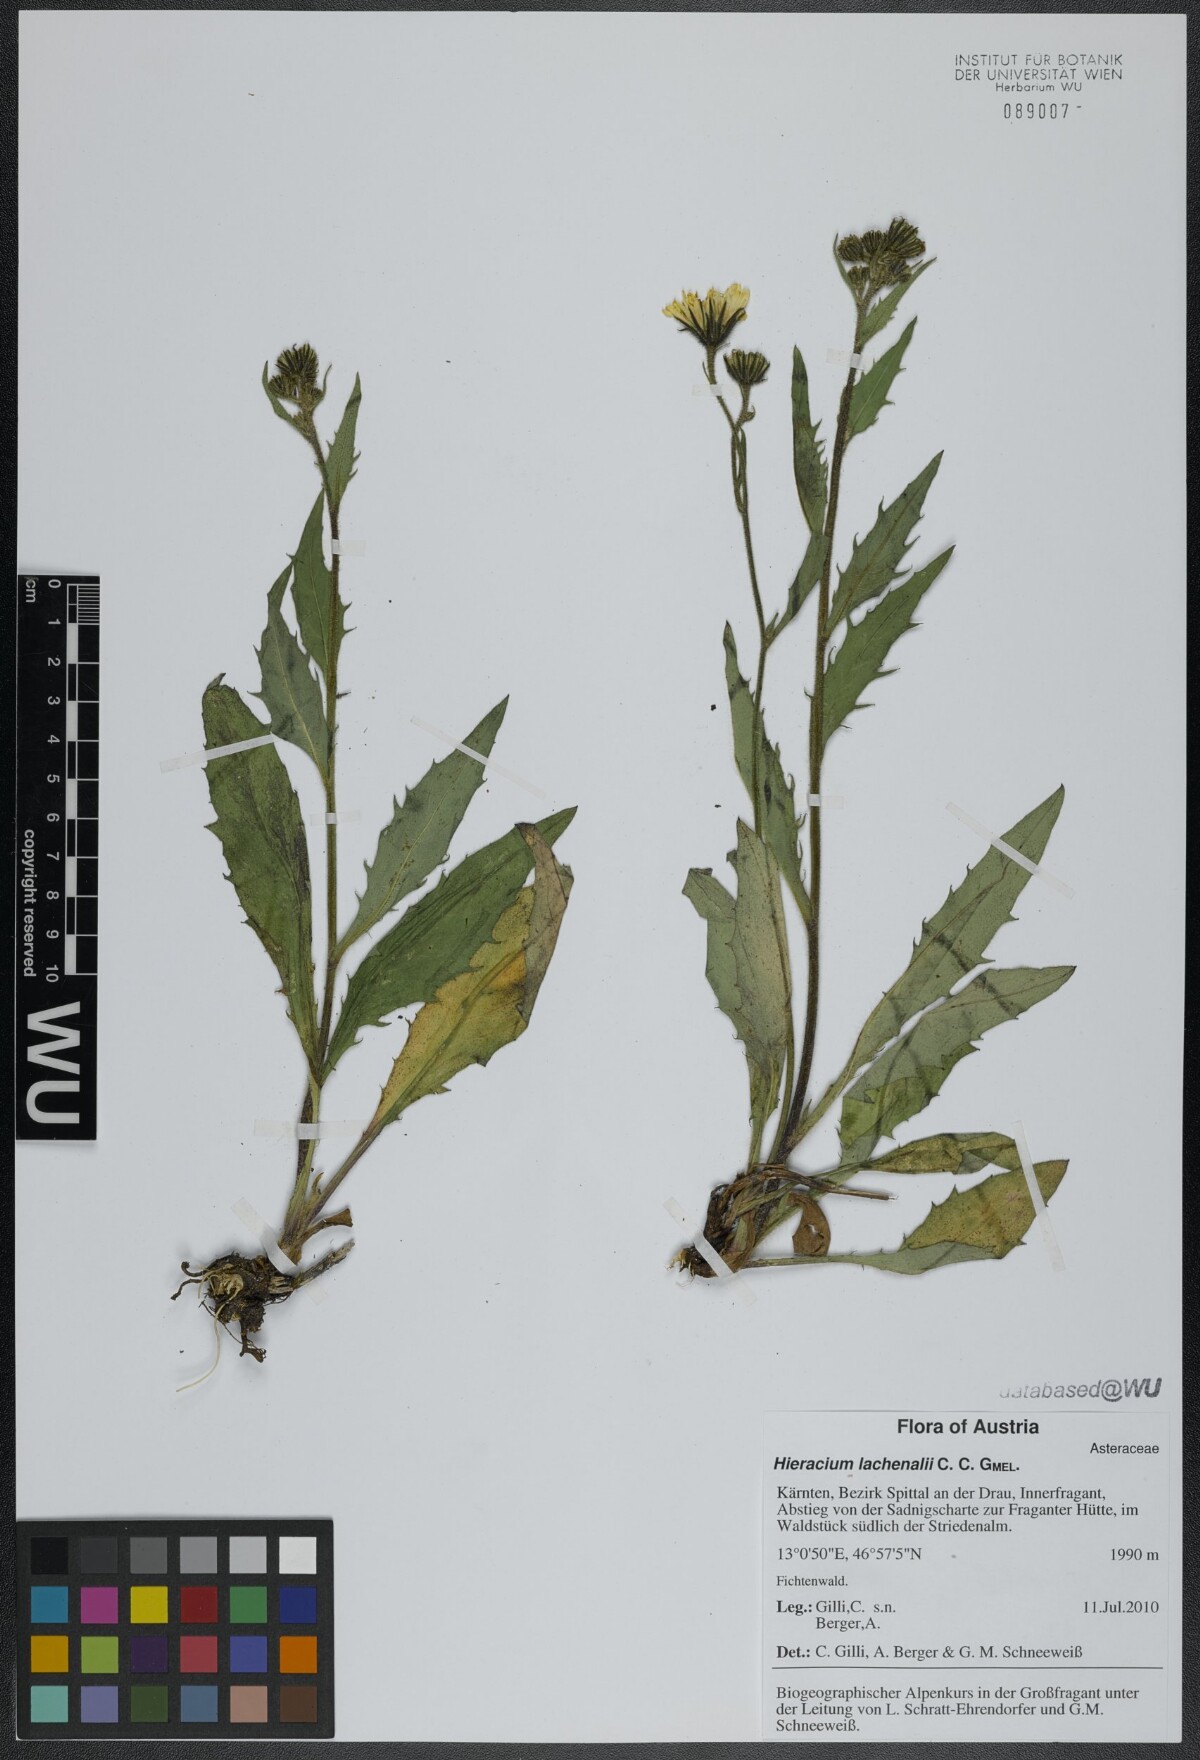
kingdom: Plantae
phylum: Tracheophyta
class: Magnoliopsida
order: Asterales
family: Asteraceae
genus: Hieracium
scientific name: Hieracium lachenalii
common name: Common hawkweed
